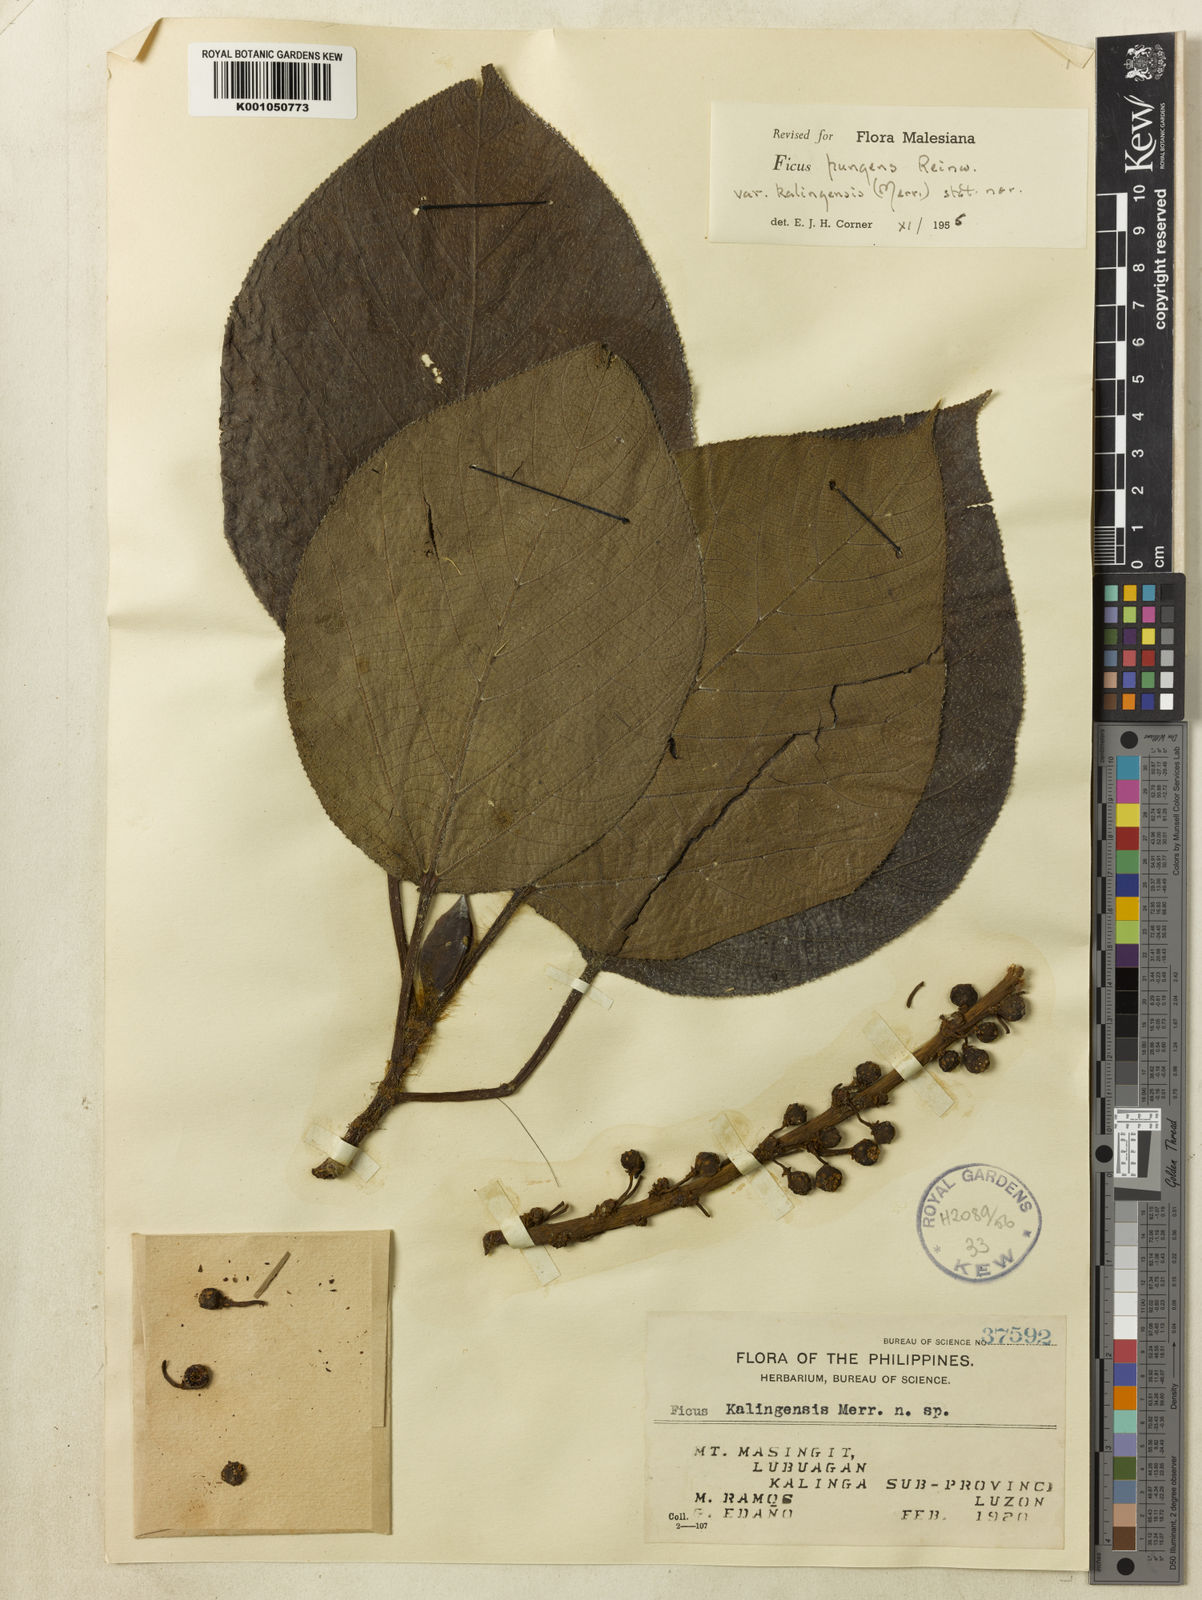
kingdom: Plantae
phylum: Tracheophyta
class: Magnoliopsida
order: Rosales
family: Moraceae
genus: Ficus
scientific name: Ficus pungens
